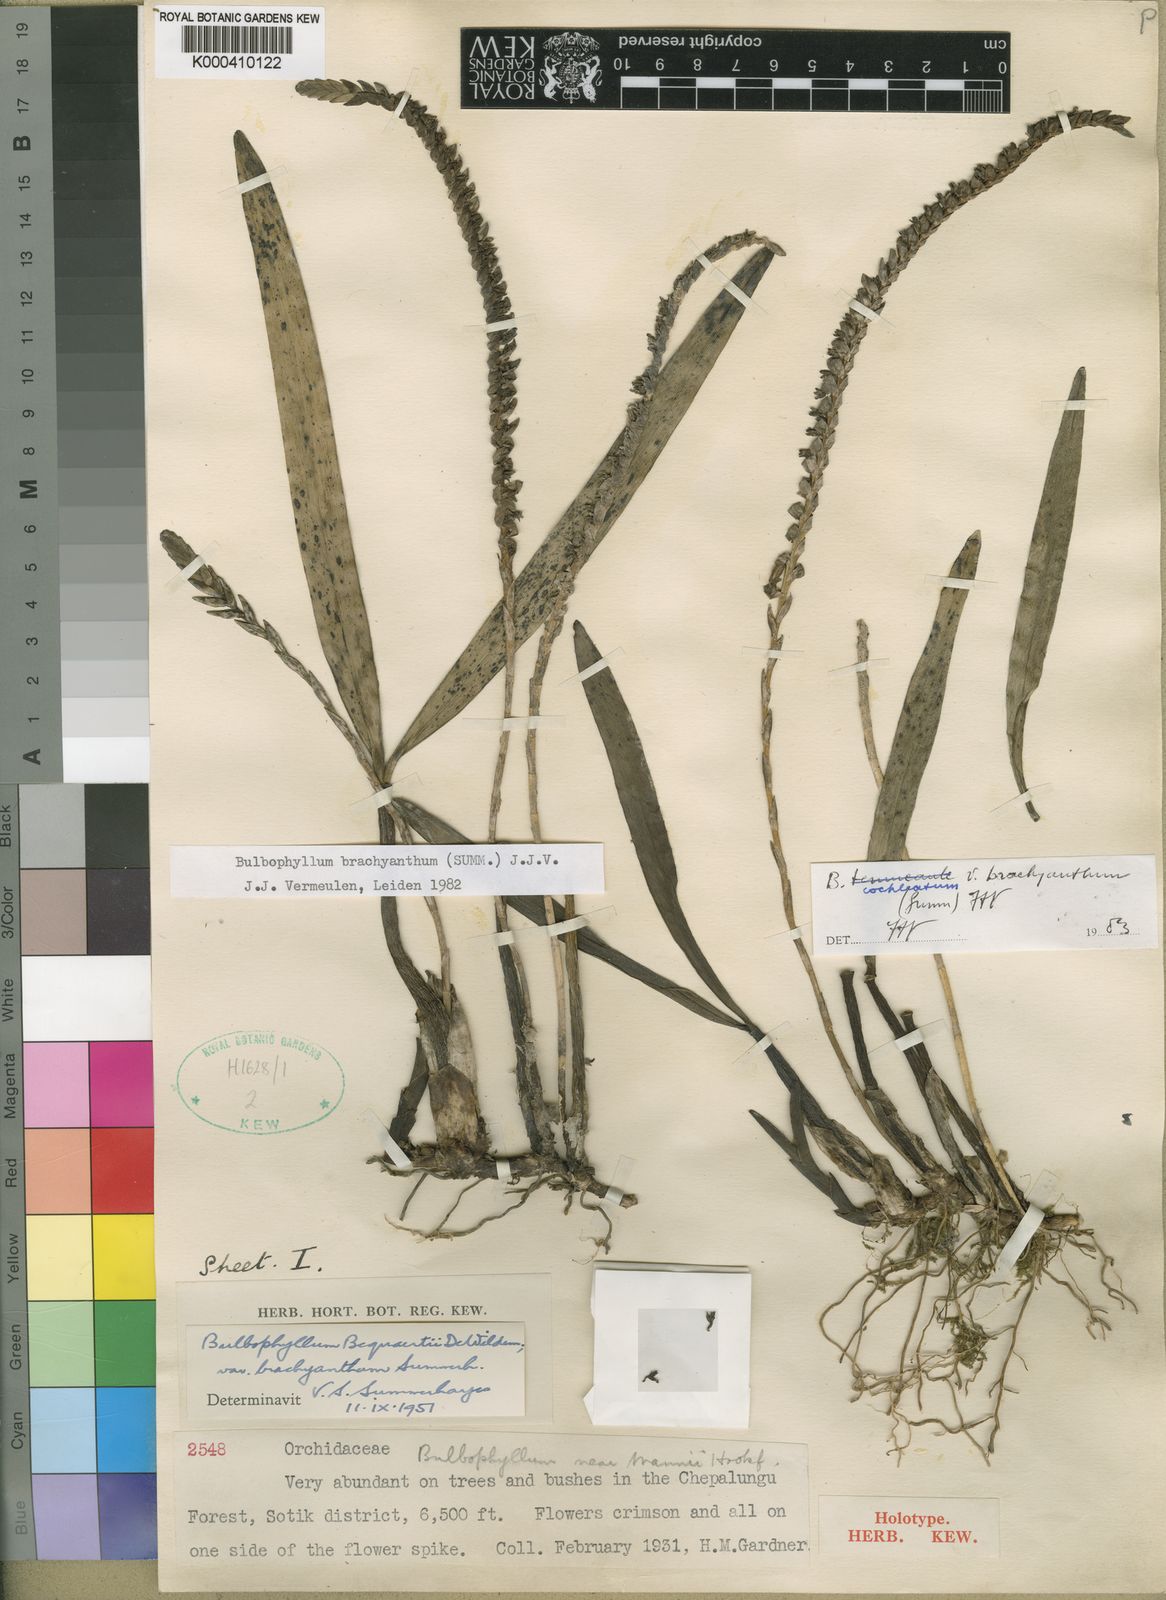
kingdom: Plantae
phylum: Tracheophyta
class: Liliopsida
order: Asparagales
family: Orchidaceae
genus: Bulbophyllum
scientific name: Bulbophyllum cochleatum
